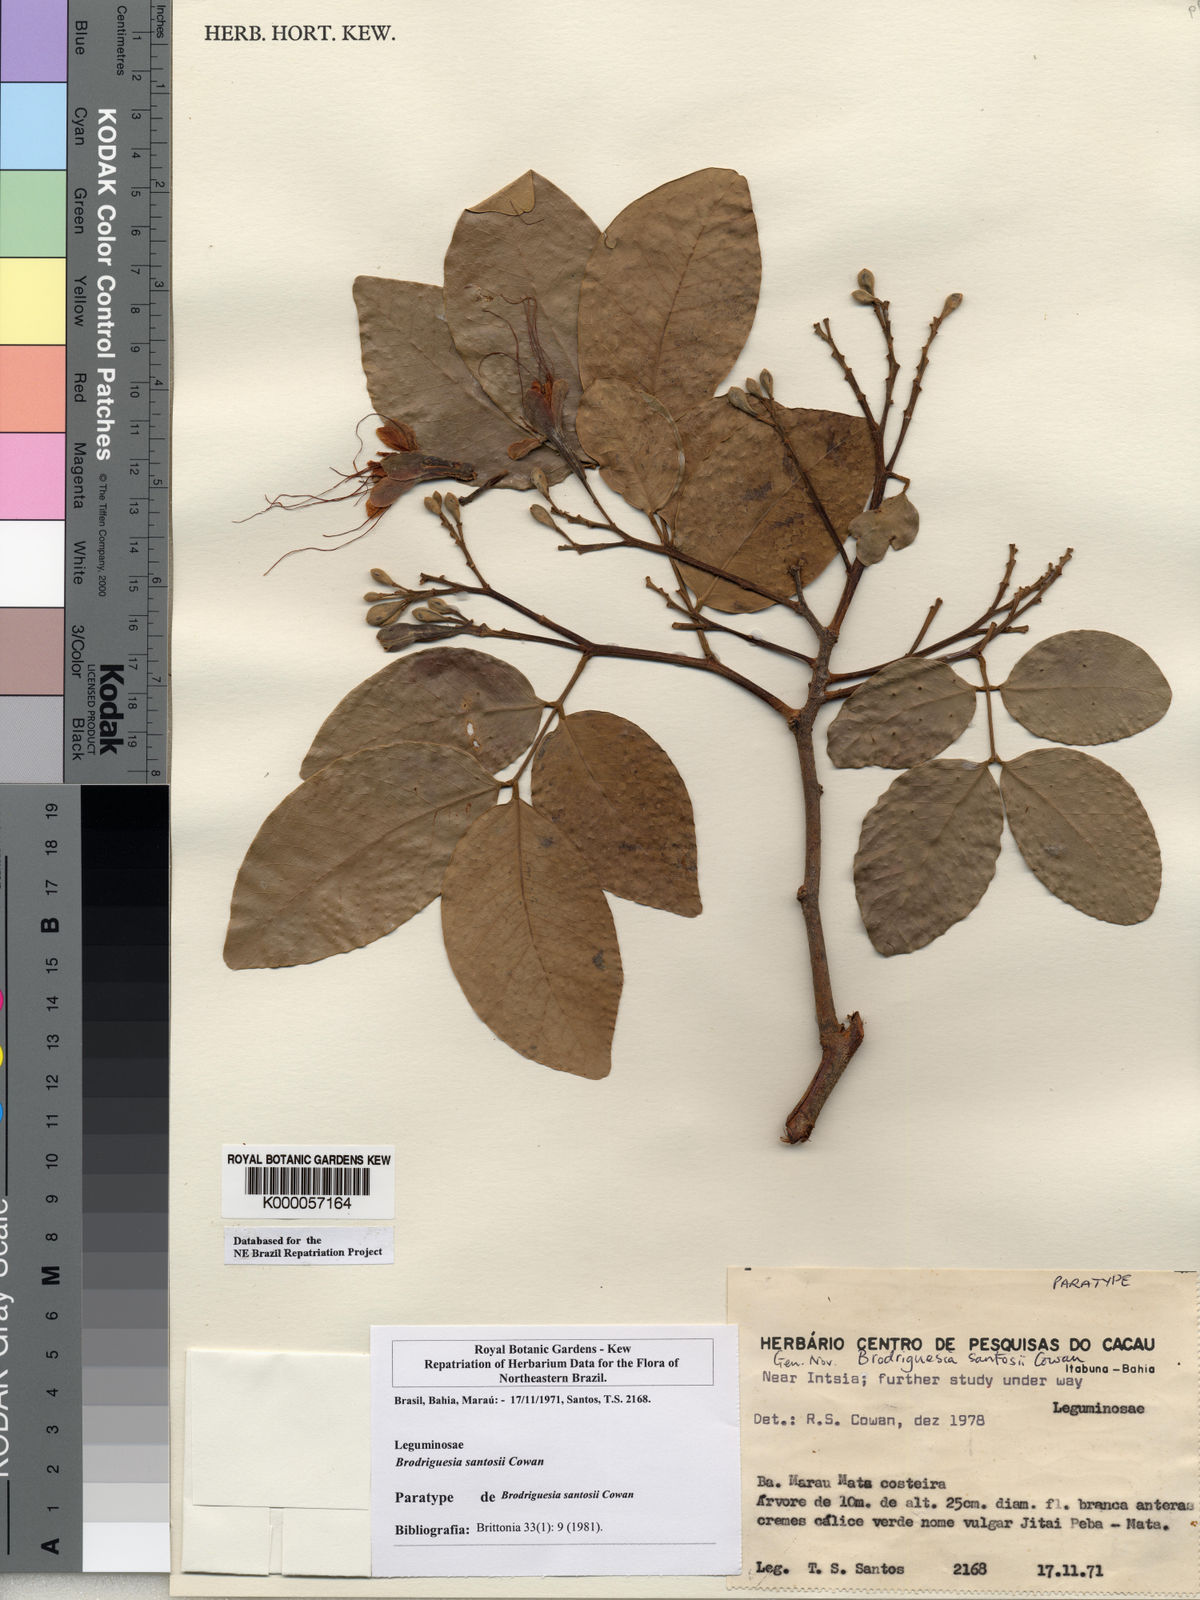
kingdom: Plantae
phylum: Tracheophyta
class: Magnoliopsida
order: Fabales
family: Fabaceae
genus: Brodriguesia
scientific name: Brodriguesia santosii
